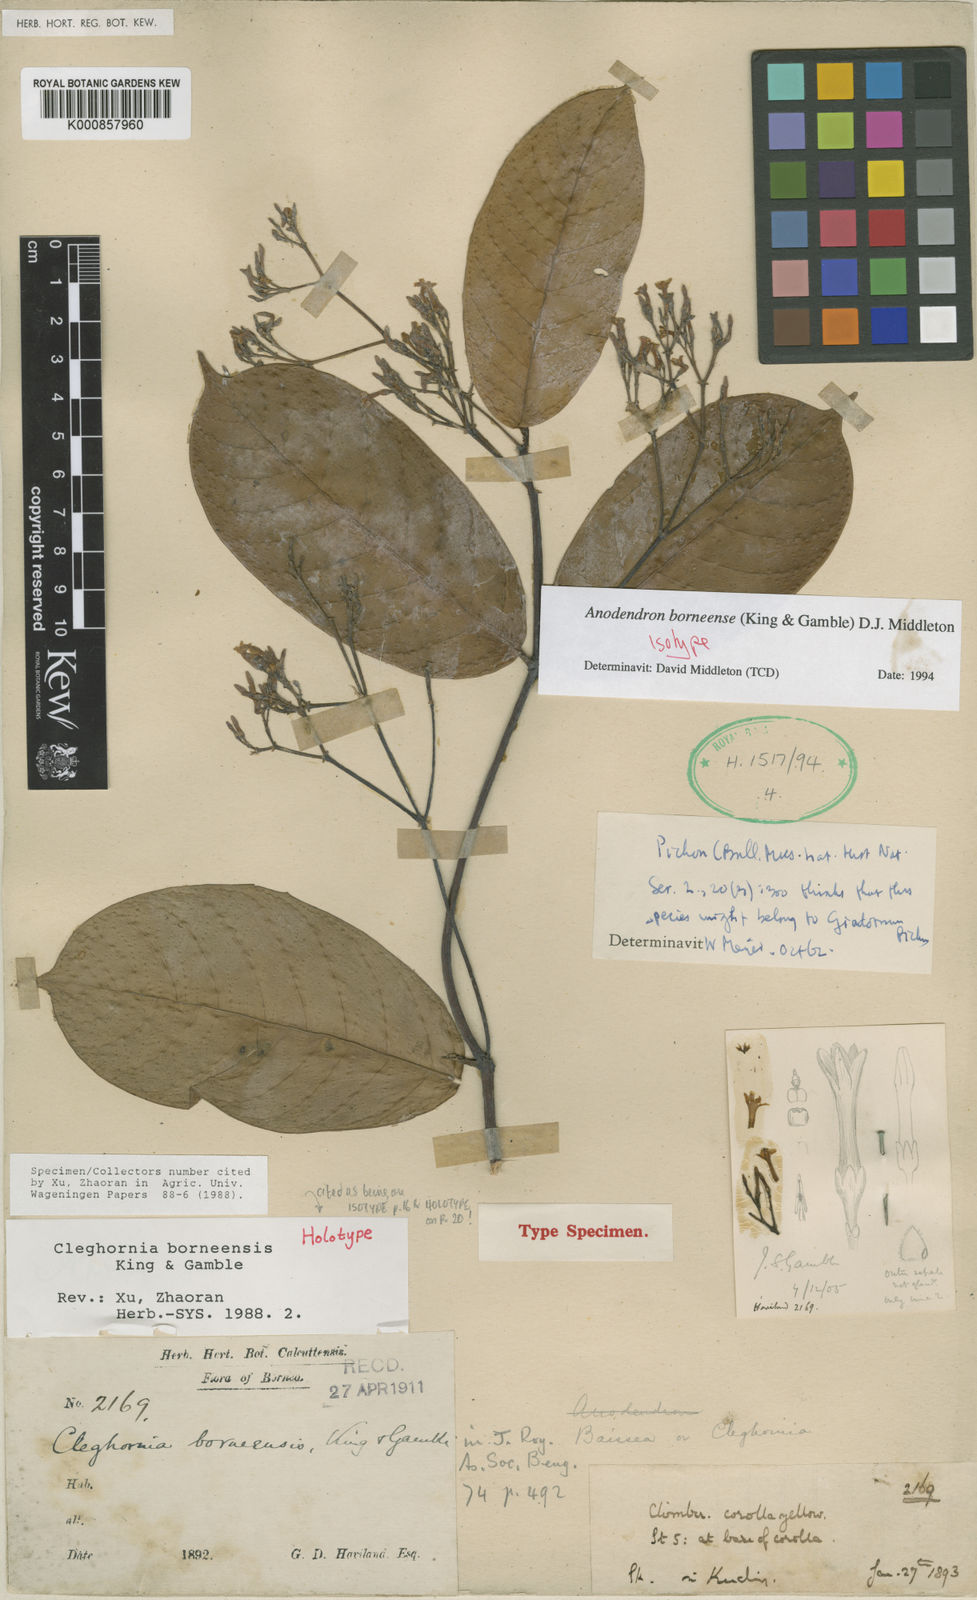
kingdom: Plantae
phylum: Tracheophyta
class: Magnoliopsida
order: Gentianales
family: Apocynaceae
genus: Anodendron
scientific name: Anodendron borneense
